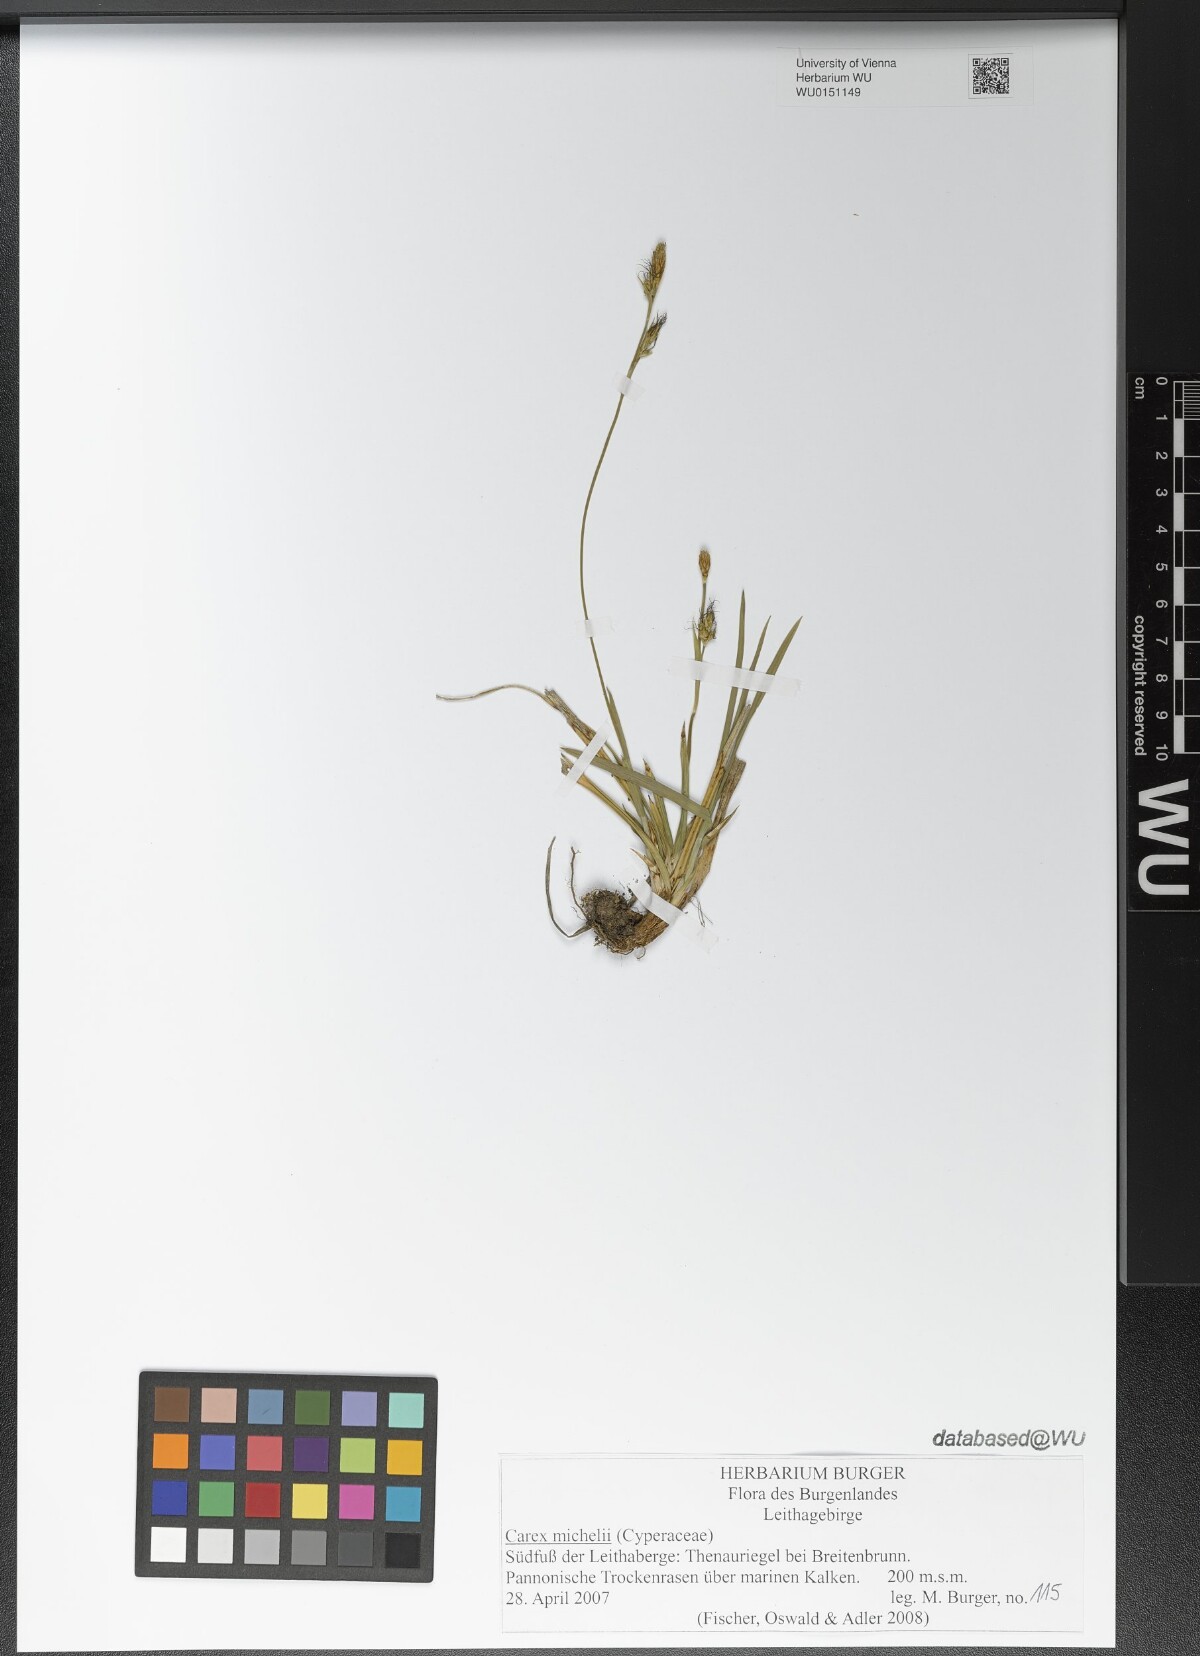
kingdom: Plantae
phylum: Tracheophyta
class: Liliopsida
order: Poales
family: Cyperaceae
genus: Carex
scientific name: Carex michelii
